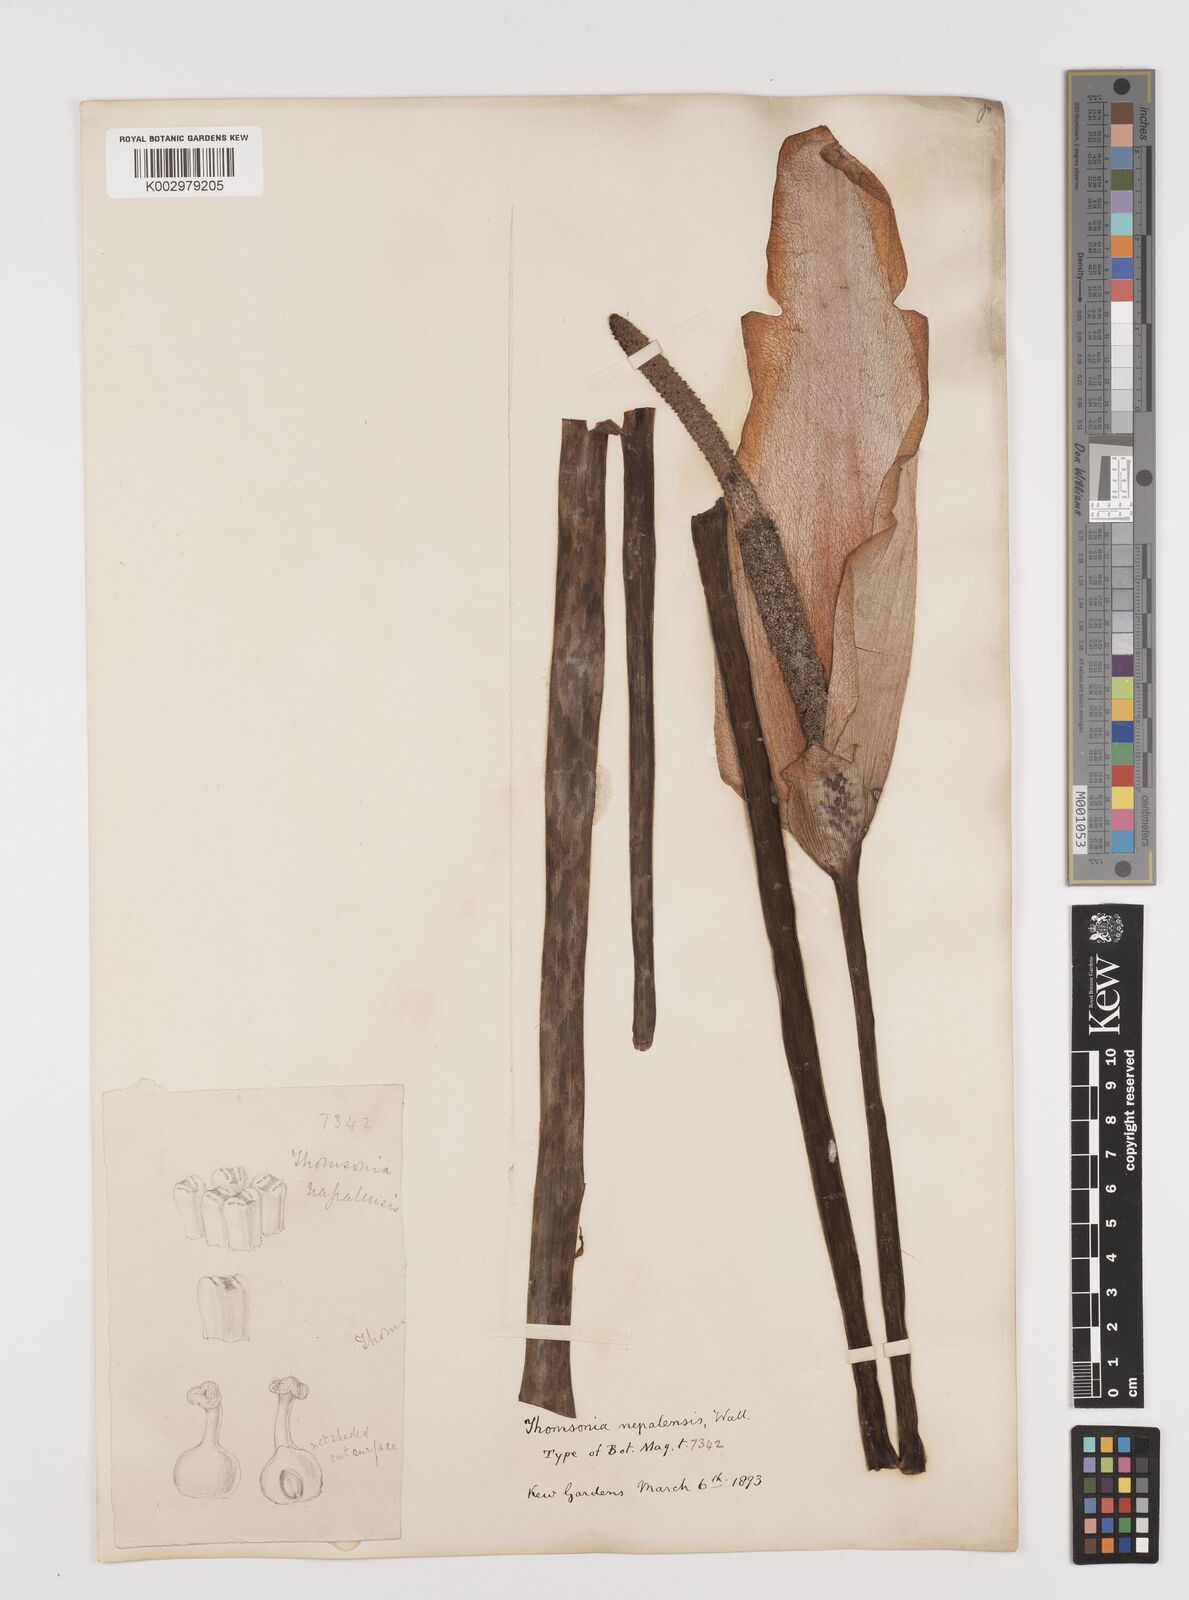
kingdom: Plantae
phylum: Tracheophyta
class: Liliopsida
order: Alismatales
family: Araceae
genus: Amorphophallus
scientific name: Amorphophallus napalensis
